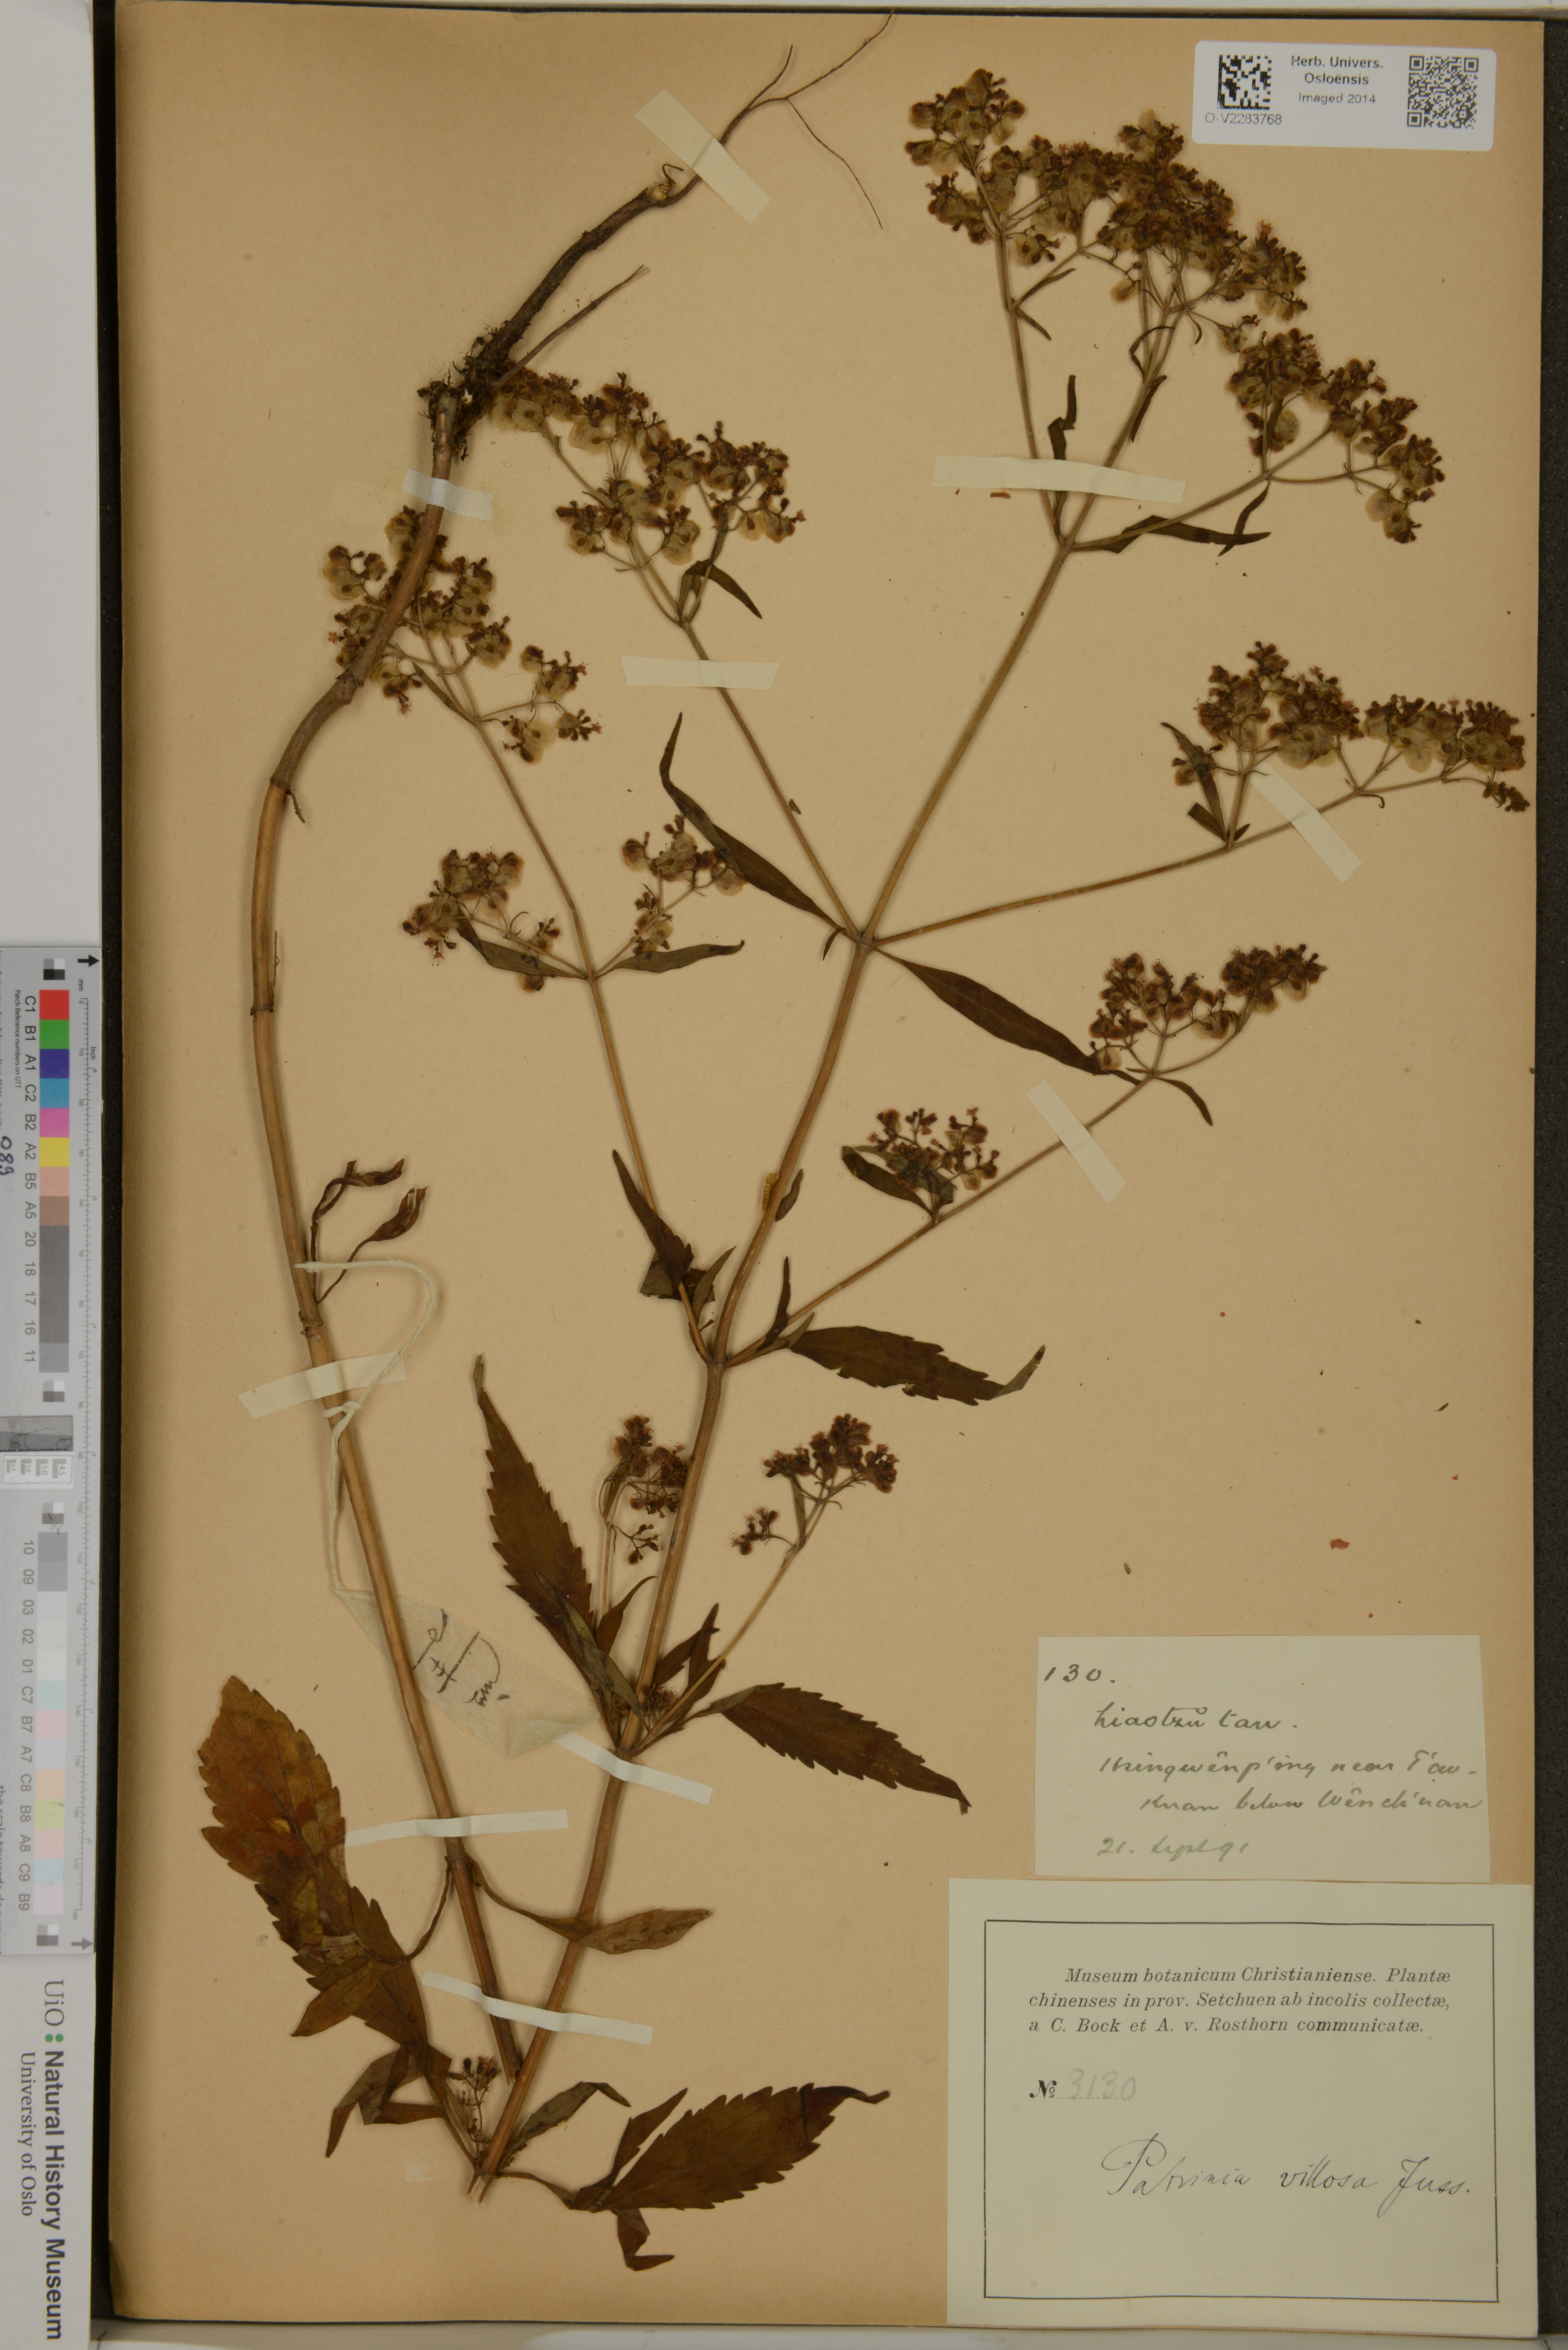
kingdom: Plantae
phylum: Tracheophyta
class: Magnoliopsida
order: Dipsacales
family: Caprifoliaceae
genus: Patrinia
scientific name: Patrinia villosa
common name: Patrinia
